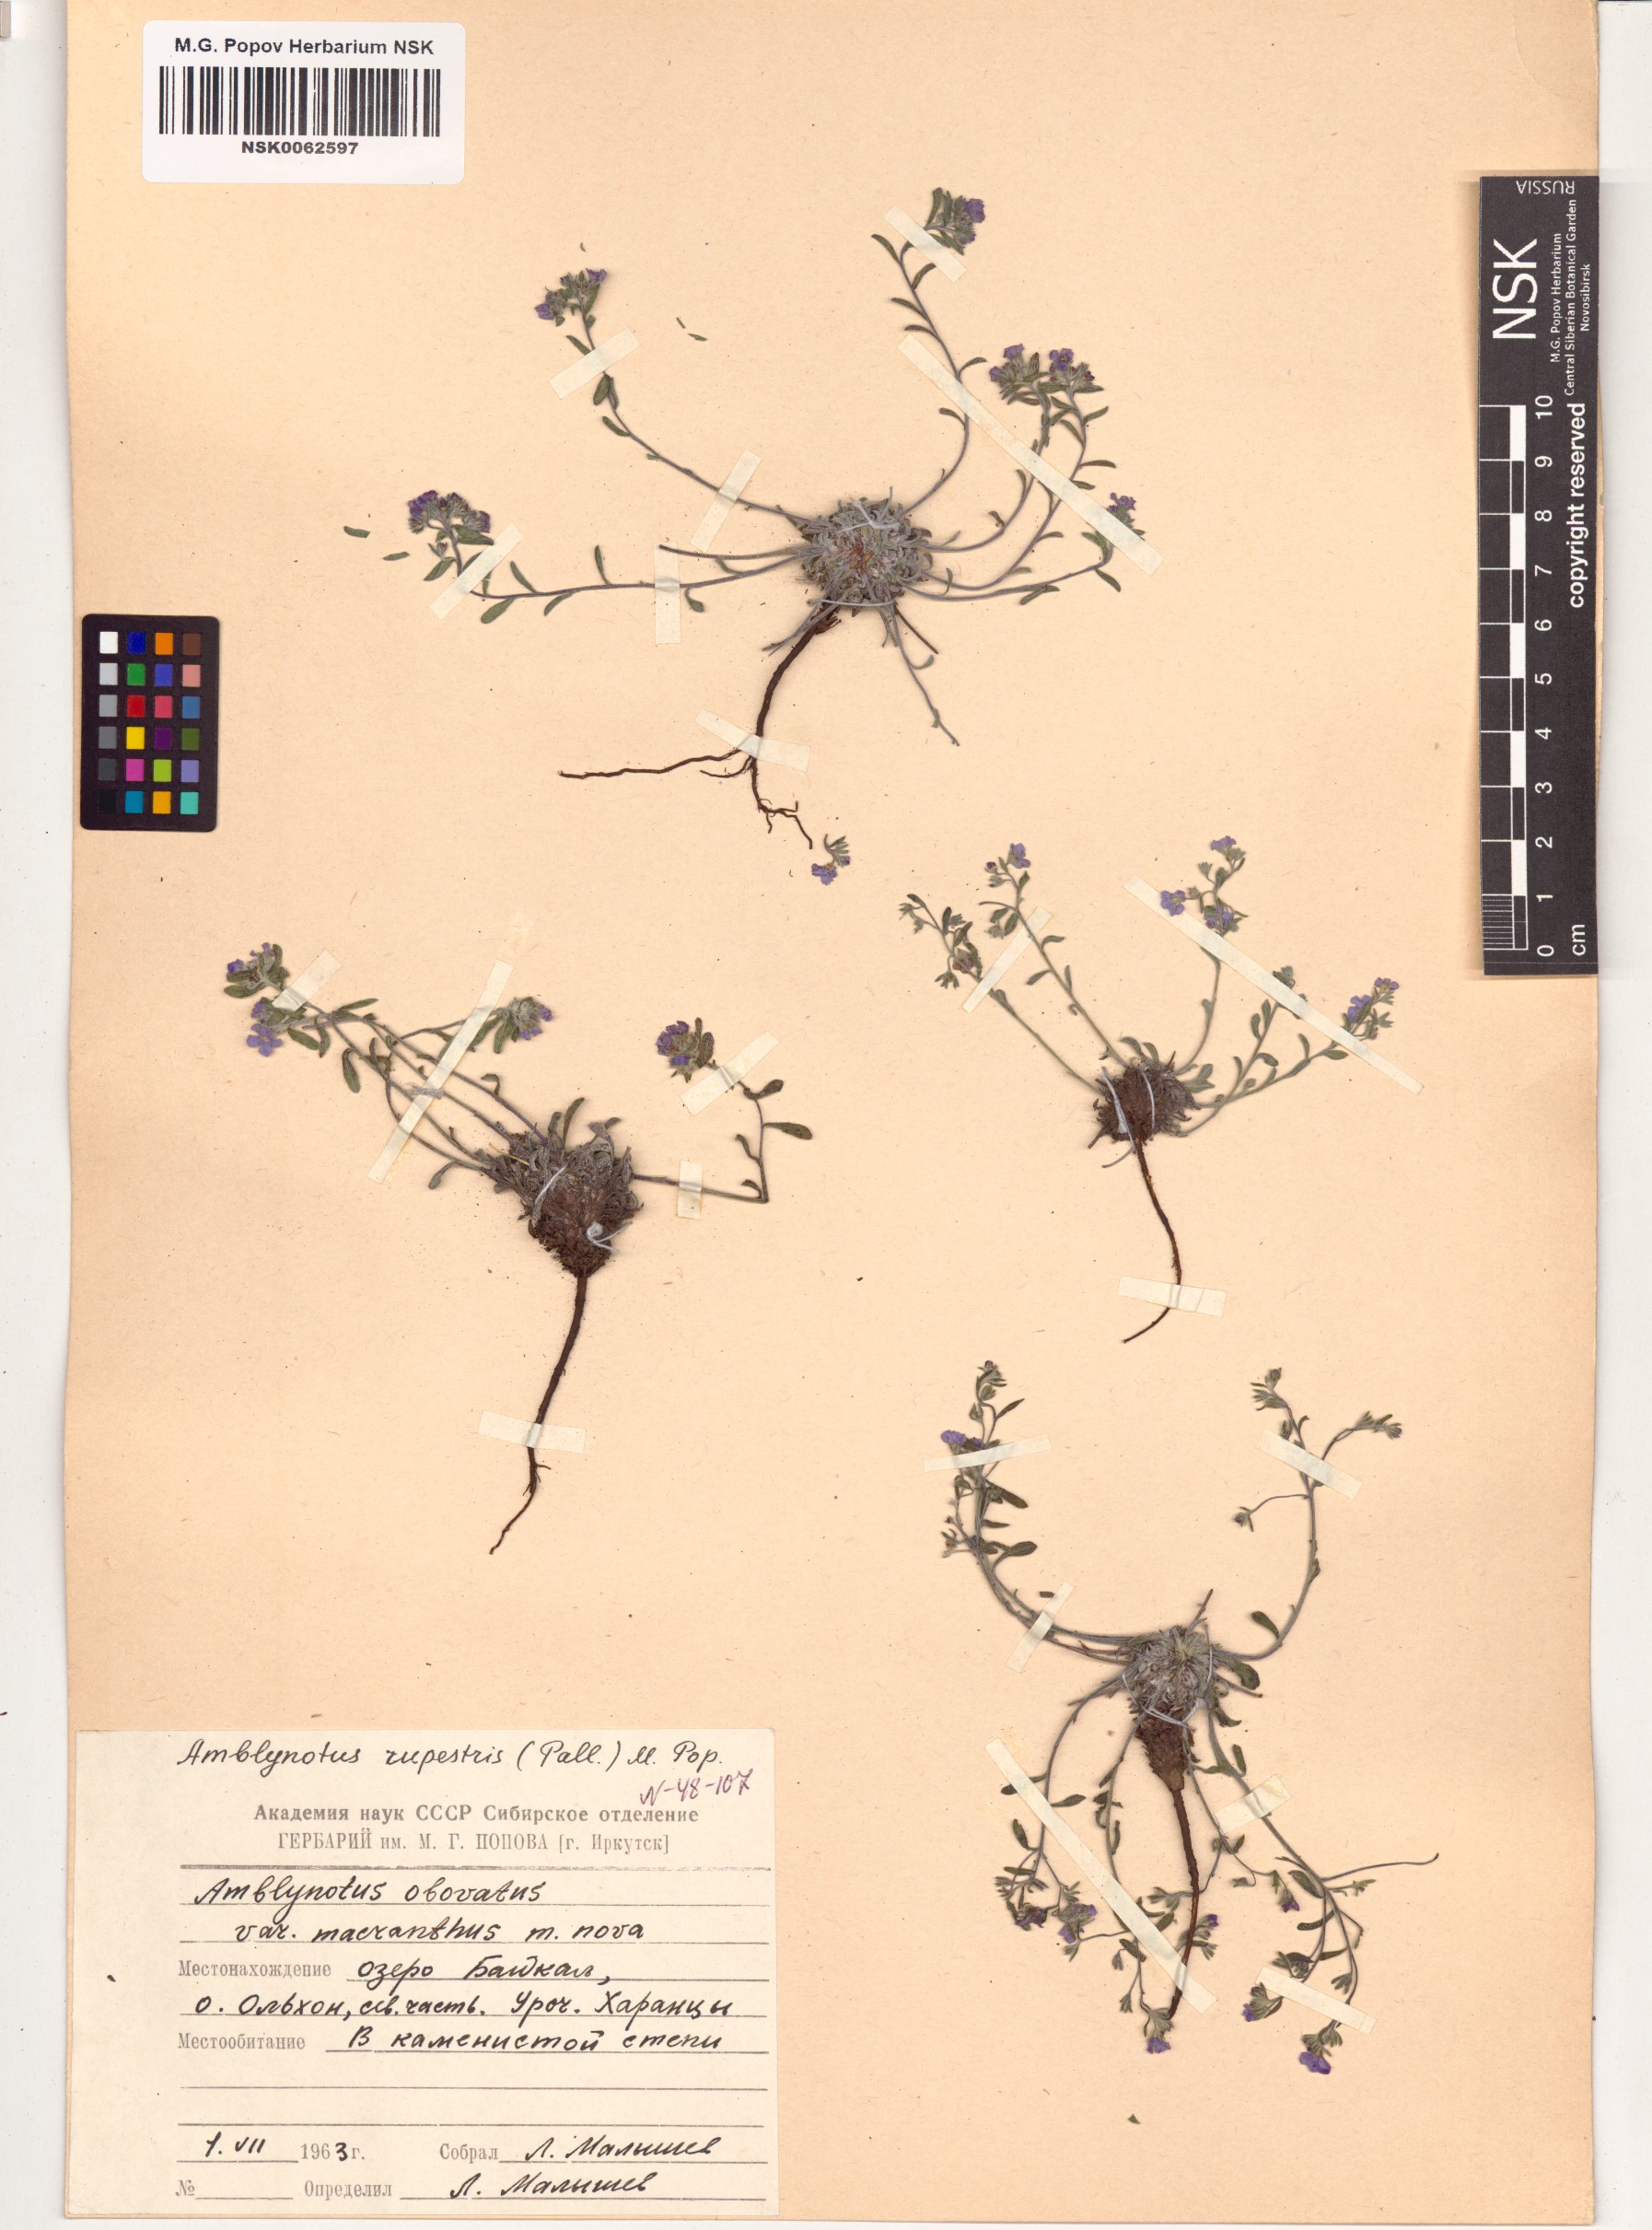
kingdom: Plantae
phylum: Tracheophyta
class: Magnoliopsida
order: Boraginales
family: Boraginaceae
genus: Eritrichium
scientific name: Eritrichium rupestre
